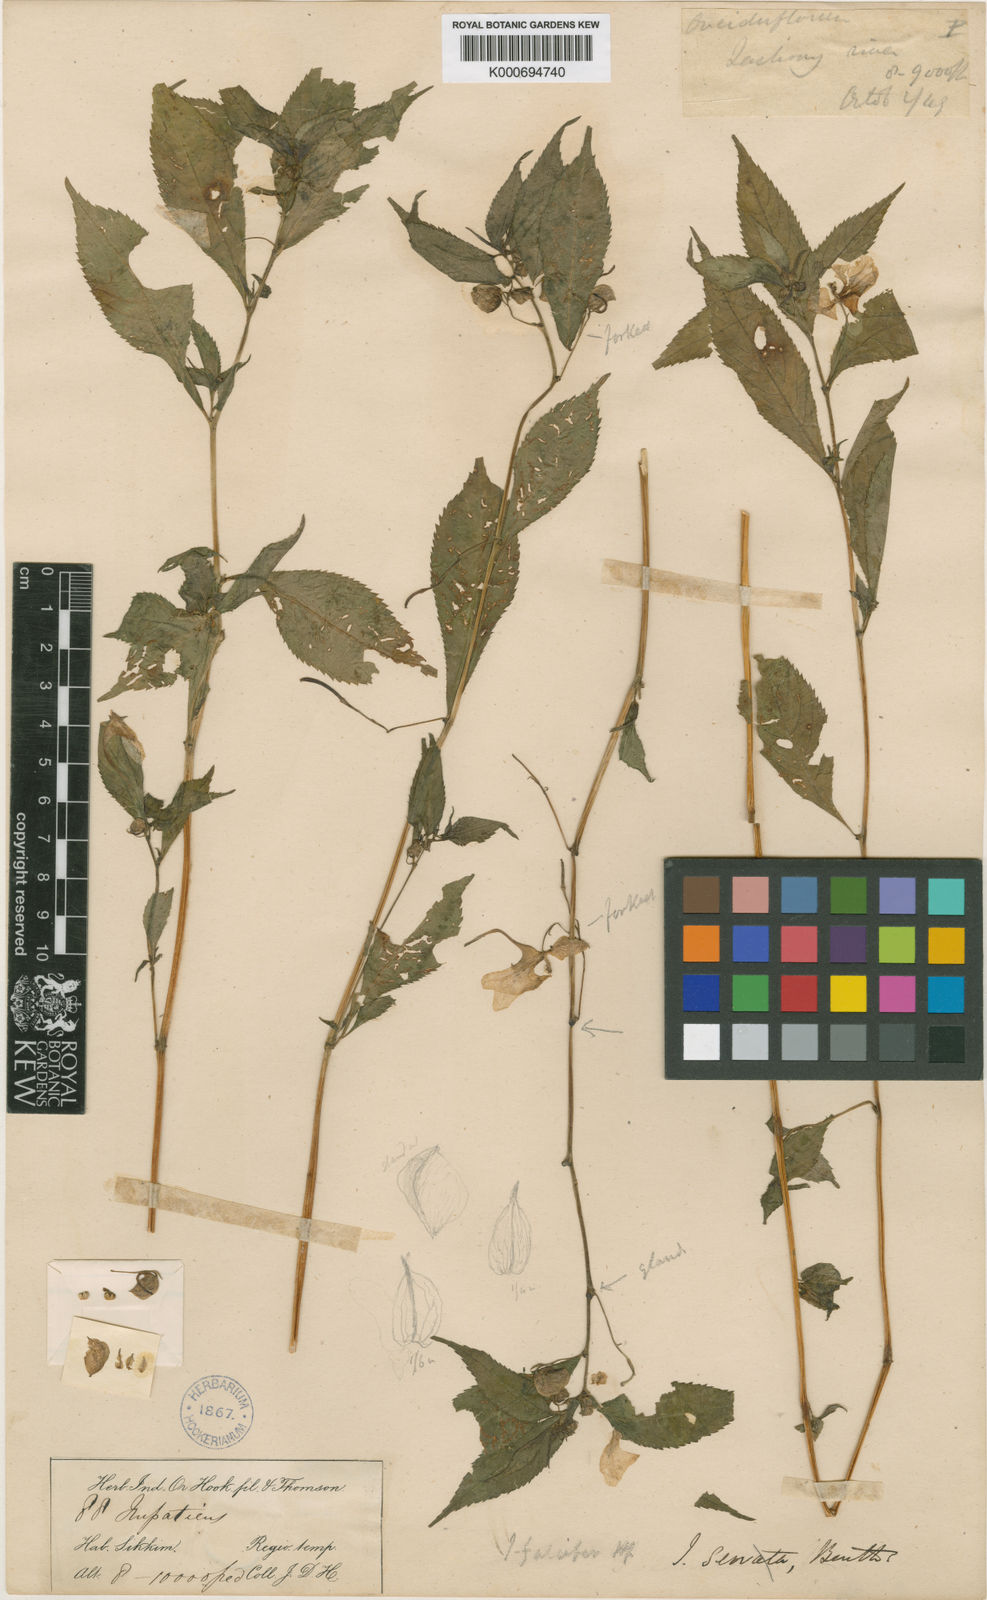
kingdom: Plantae
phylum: Tracheophyta
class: Magnoliopsida
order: Ericales
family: Balsaminaceae
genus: Impatiens
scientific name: Impatiens falcifera
